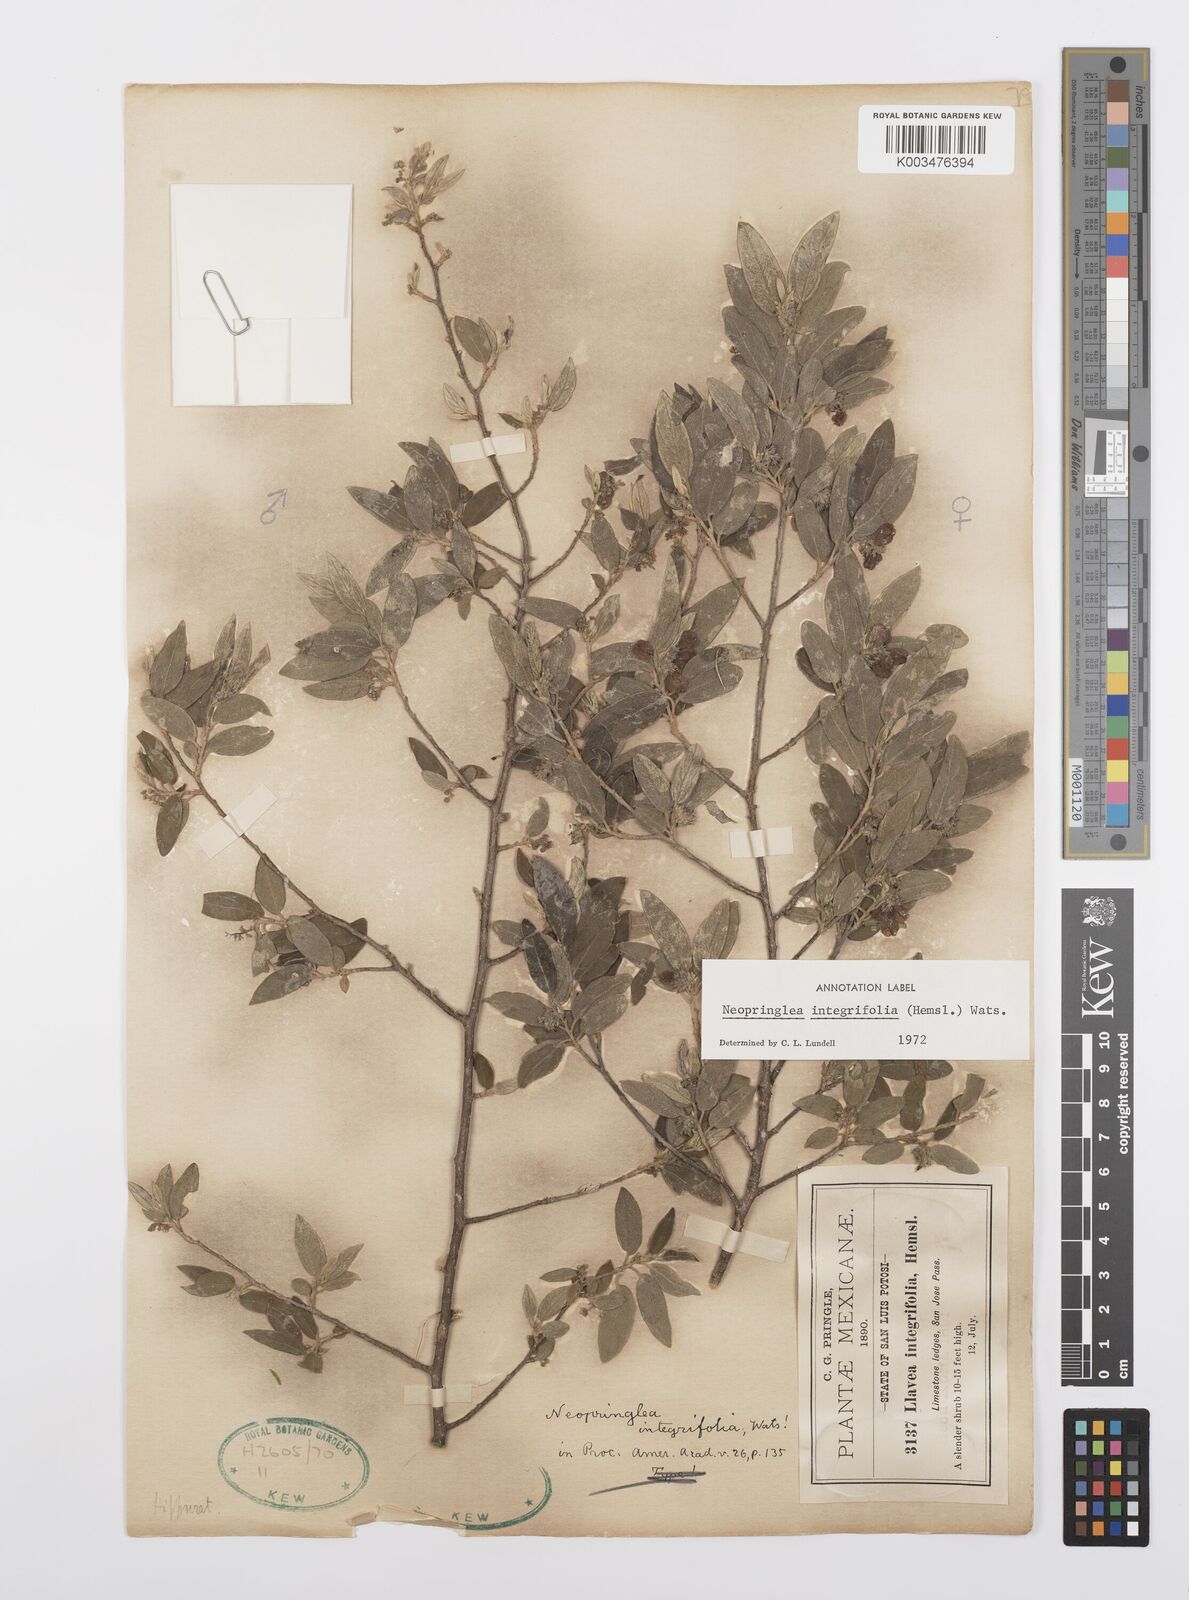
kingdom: Plantae
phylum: Tracheophyta
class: Magnoliopsida
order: Malpighiales
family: Salicaceae
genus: Neopringlea
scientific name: Neopringlea integrifolia
